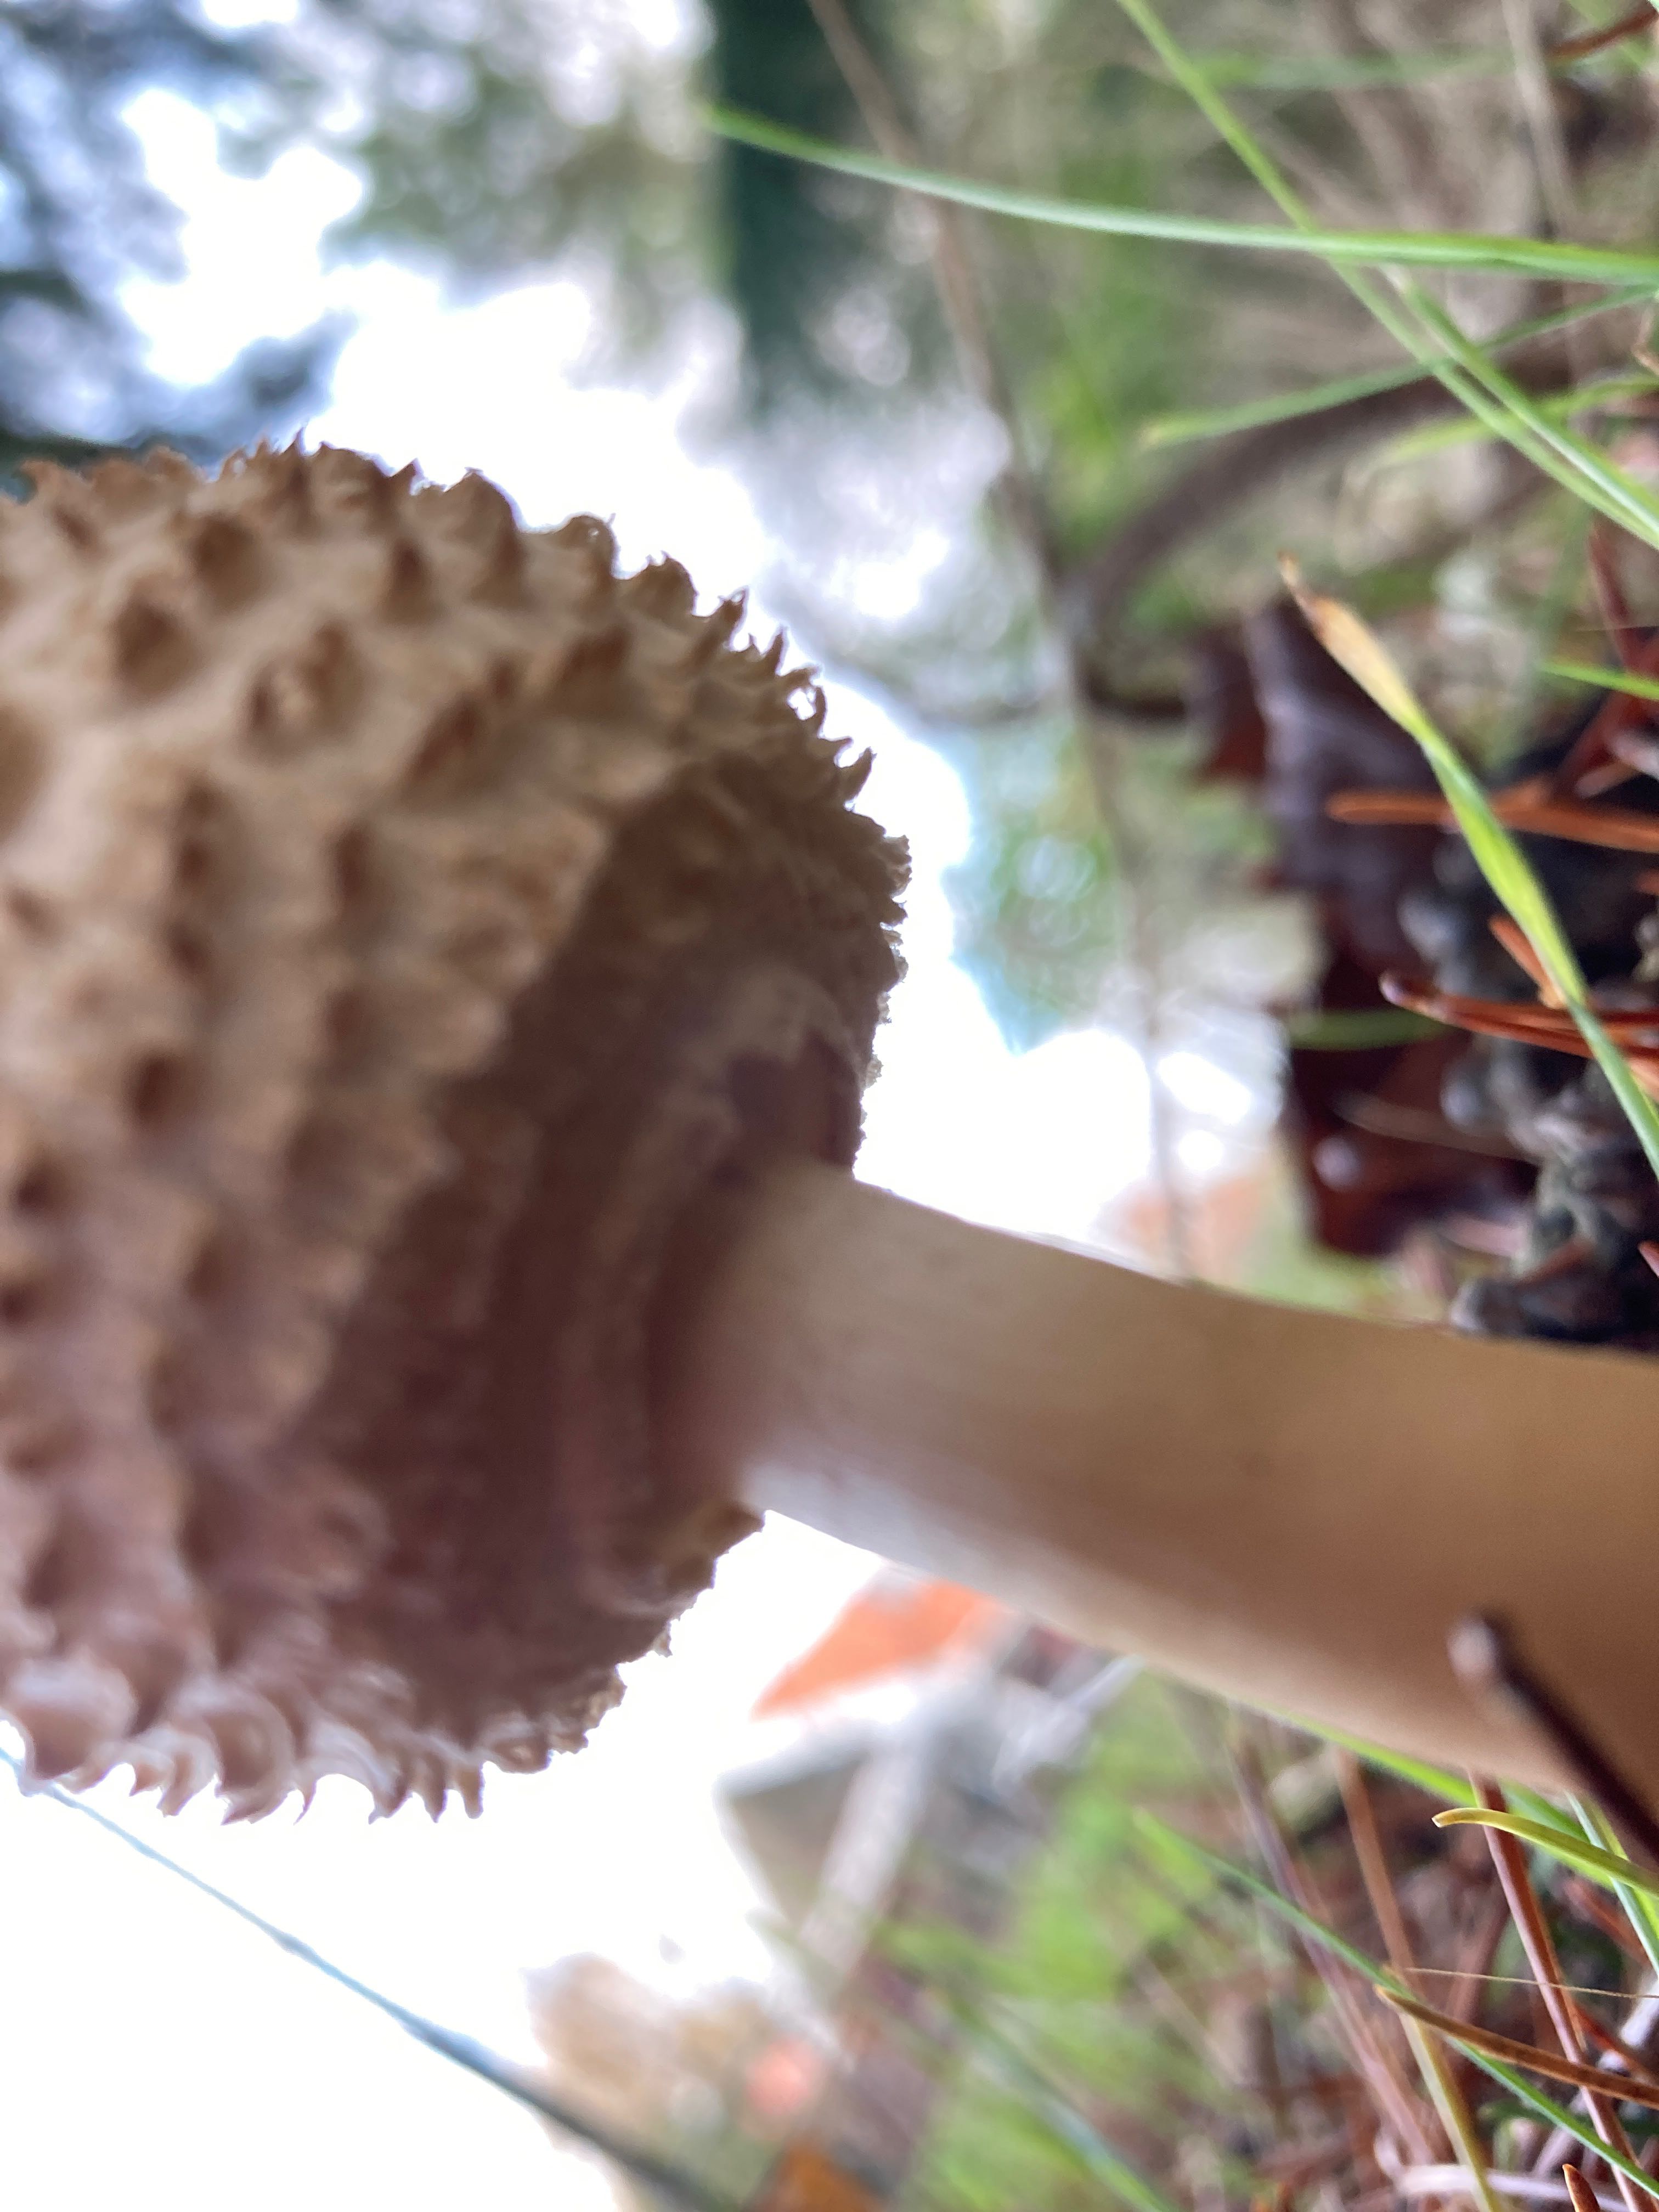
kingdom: Fungi
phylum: Basidiomycota
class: Agaricomycetes
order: Agaricales
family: Agaricaceae
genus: Leucoagaricus
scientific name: Leucoagaricus nympharum
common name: gran-silkehat
